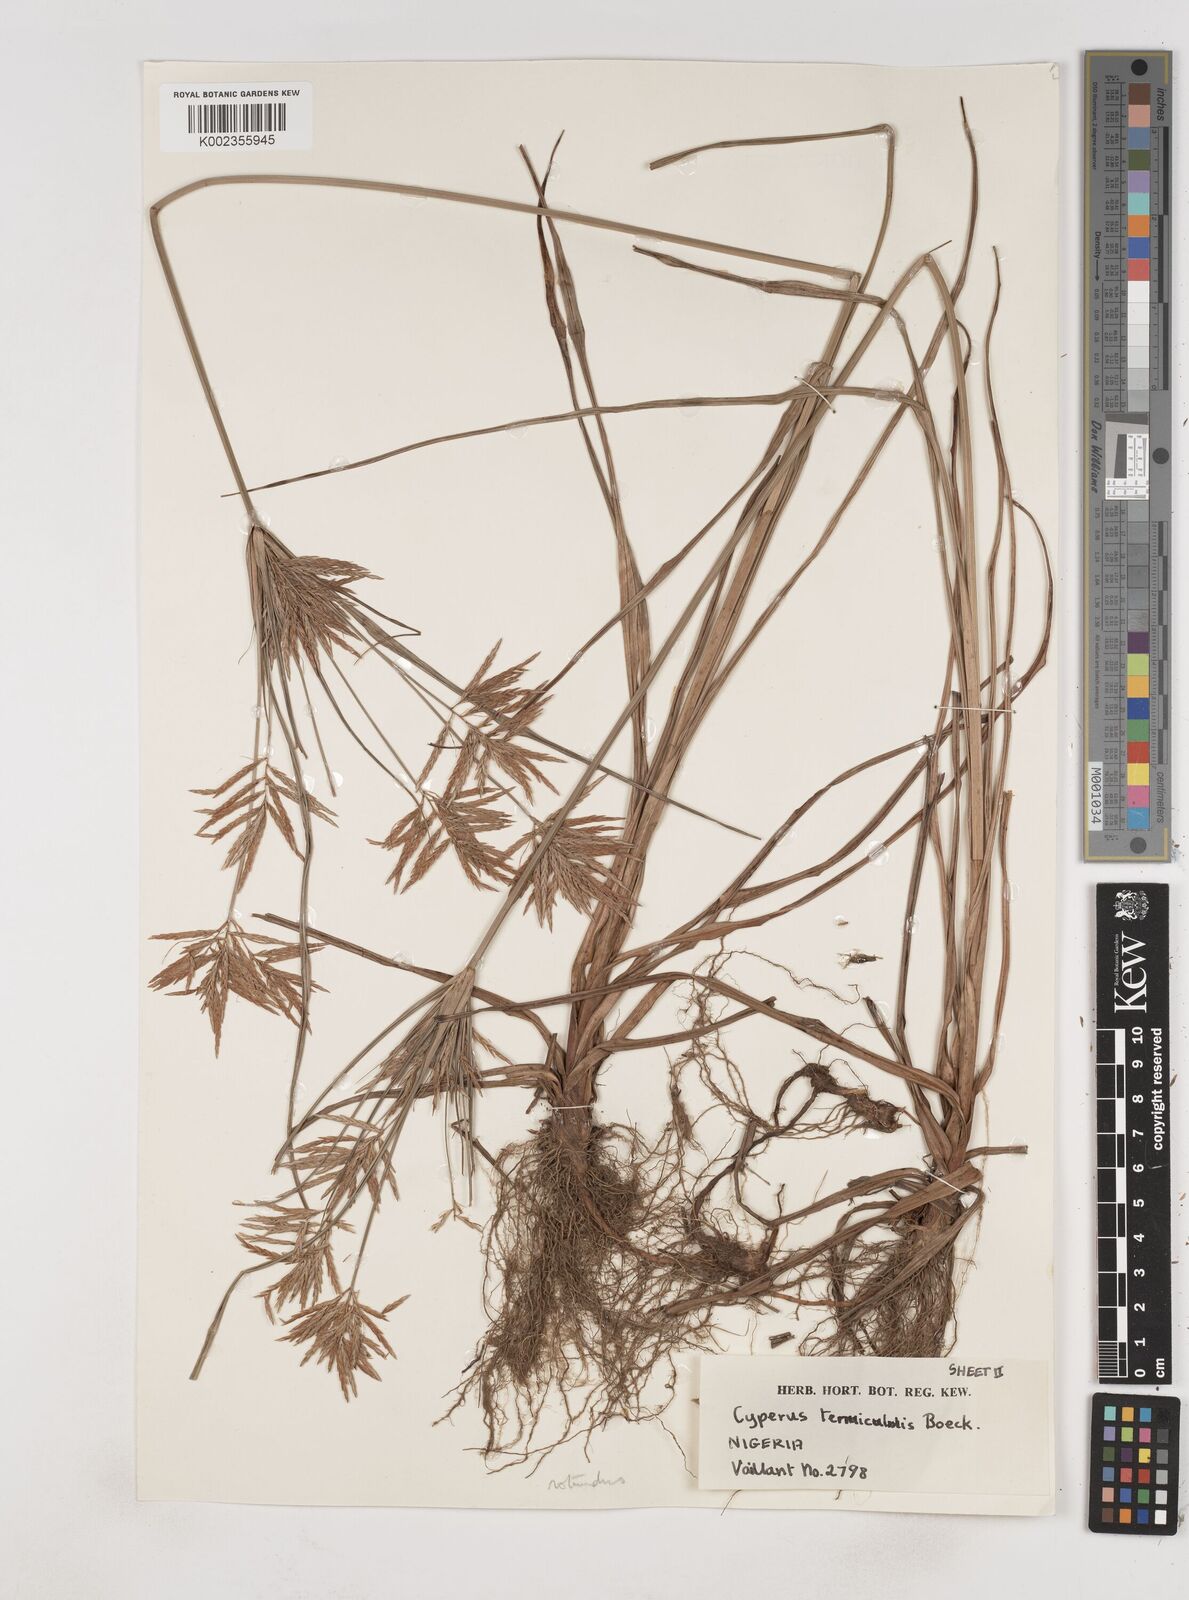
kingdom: Plantae
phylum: Tracheophyta
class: Liliopsida
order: Poales
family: Cyperaceae
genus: Cyperus
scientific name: Cyperus dilatatus
